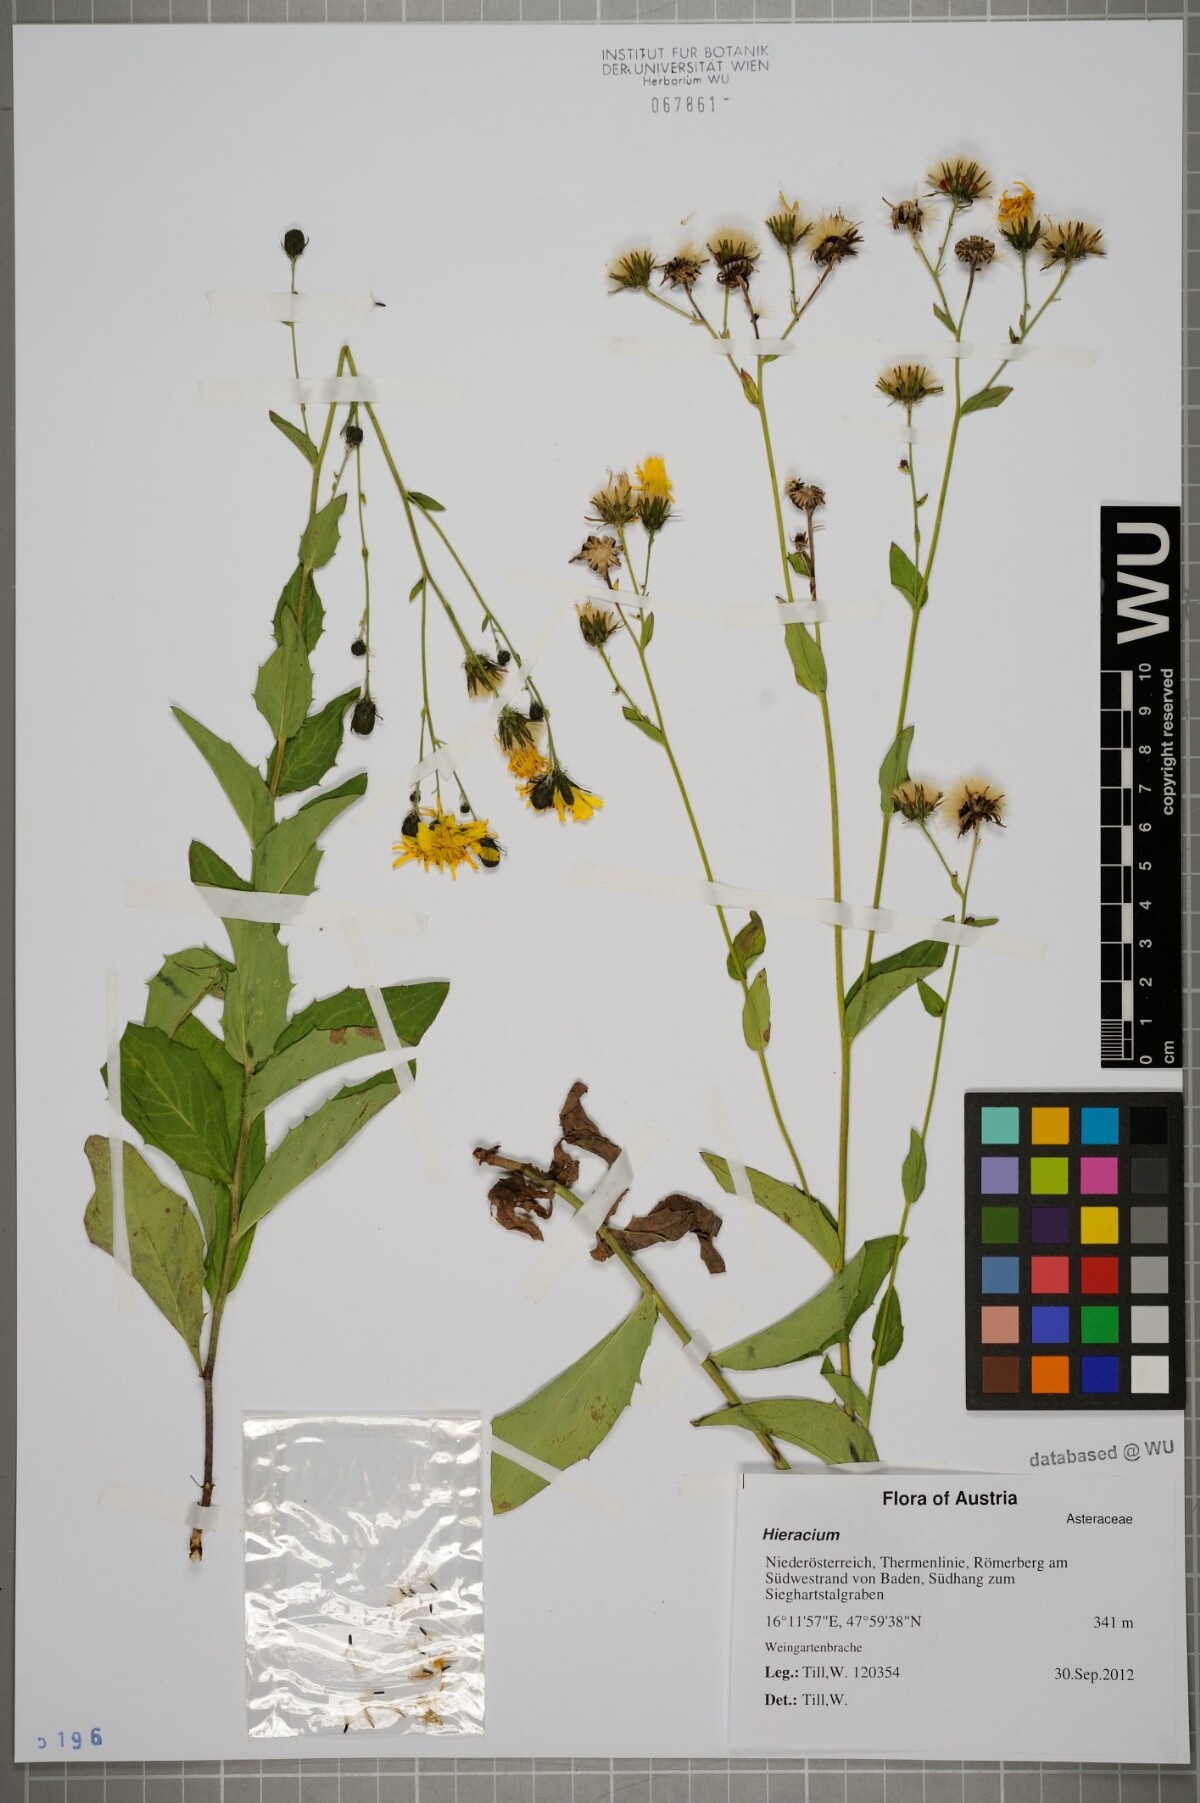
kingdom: Plantae
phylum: Tracheophyta
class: Magnoliopsida
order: Asterales
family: Asteraceae
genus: Hieracium
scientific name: Hieracium sabaudum
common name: New england hawkweed
